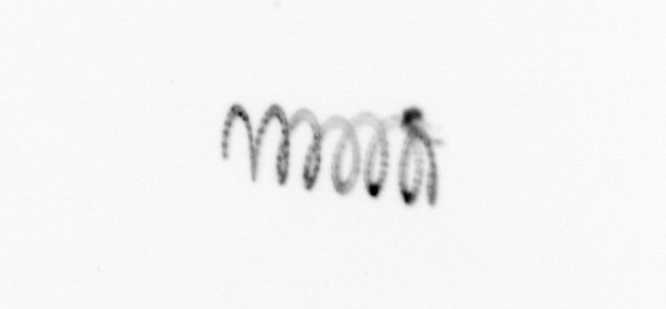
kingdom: Chromista
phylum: Ochrophyta
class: Bacillariophyceae
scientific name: Bacillariophyceae
